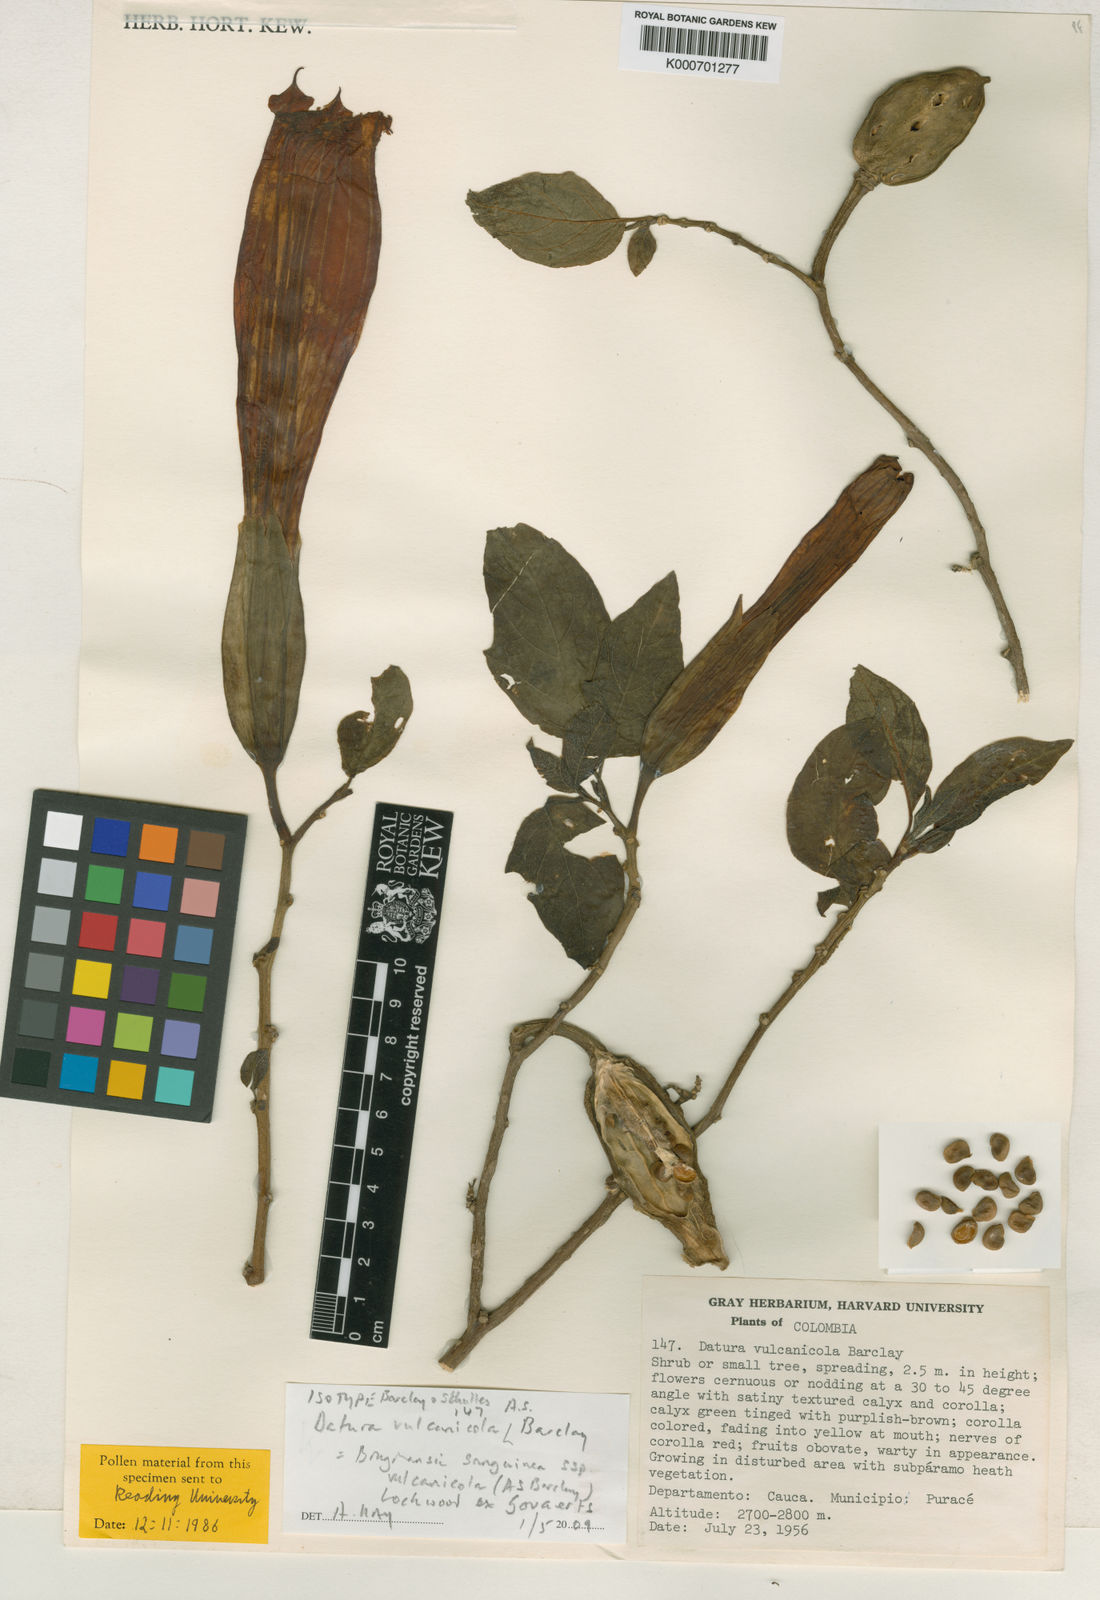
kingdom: Plantae
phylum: Tracheophyta
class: Magnoliopsida
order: Solanales
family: Solanaceae
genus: Brugmansia
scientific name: Brugmansia vulcanicola
